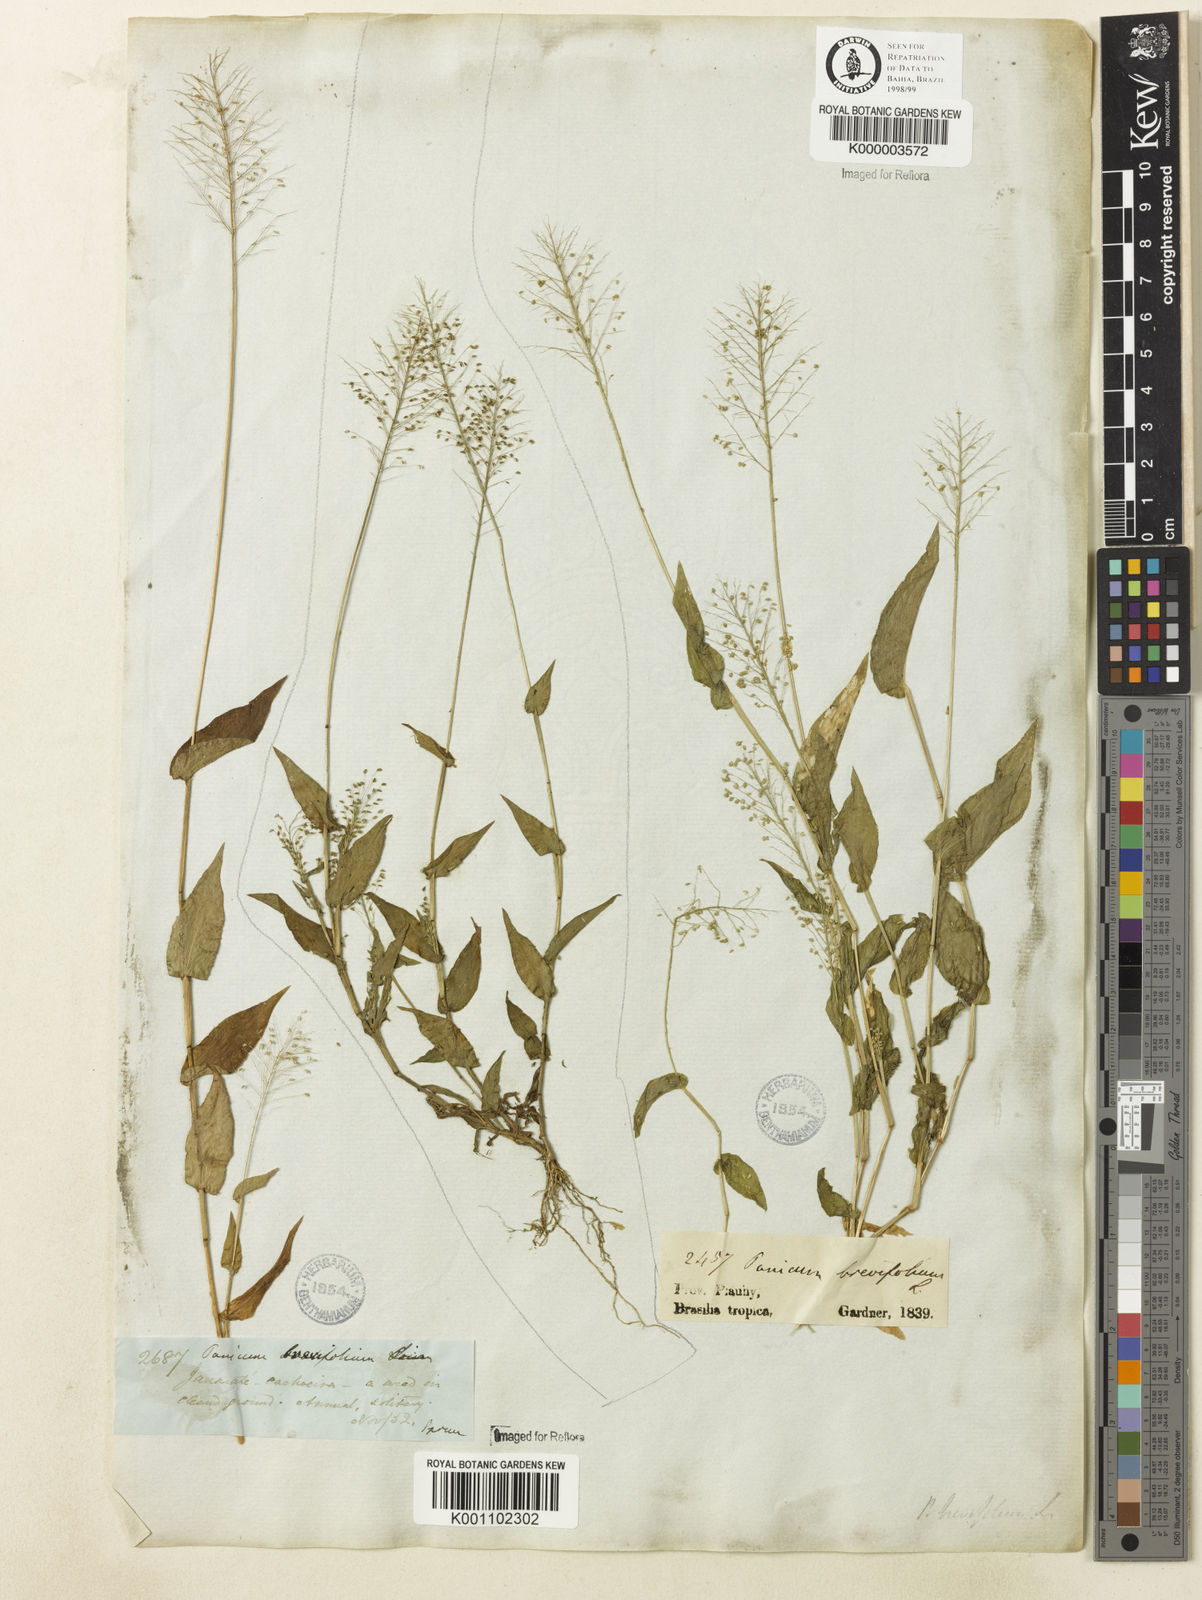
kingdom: Plantae
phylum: Tracheophyta
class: Liliopsida
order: Poales
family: Poaceae
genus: Panicum
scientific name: Panicum hirtum
